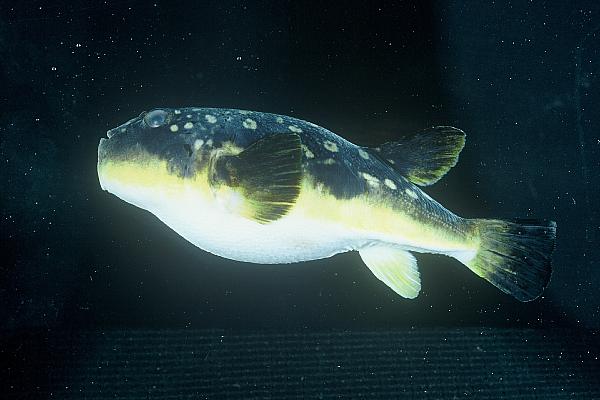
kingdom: Animalia
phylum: Chordata
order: Tetraodontiformes
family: Tetraodontidae
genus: Amblyrhynchotes
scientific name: Amblyrhynchotes honckenii
